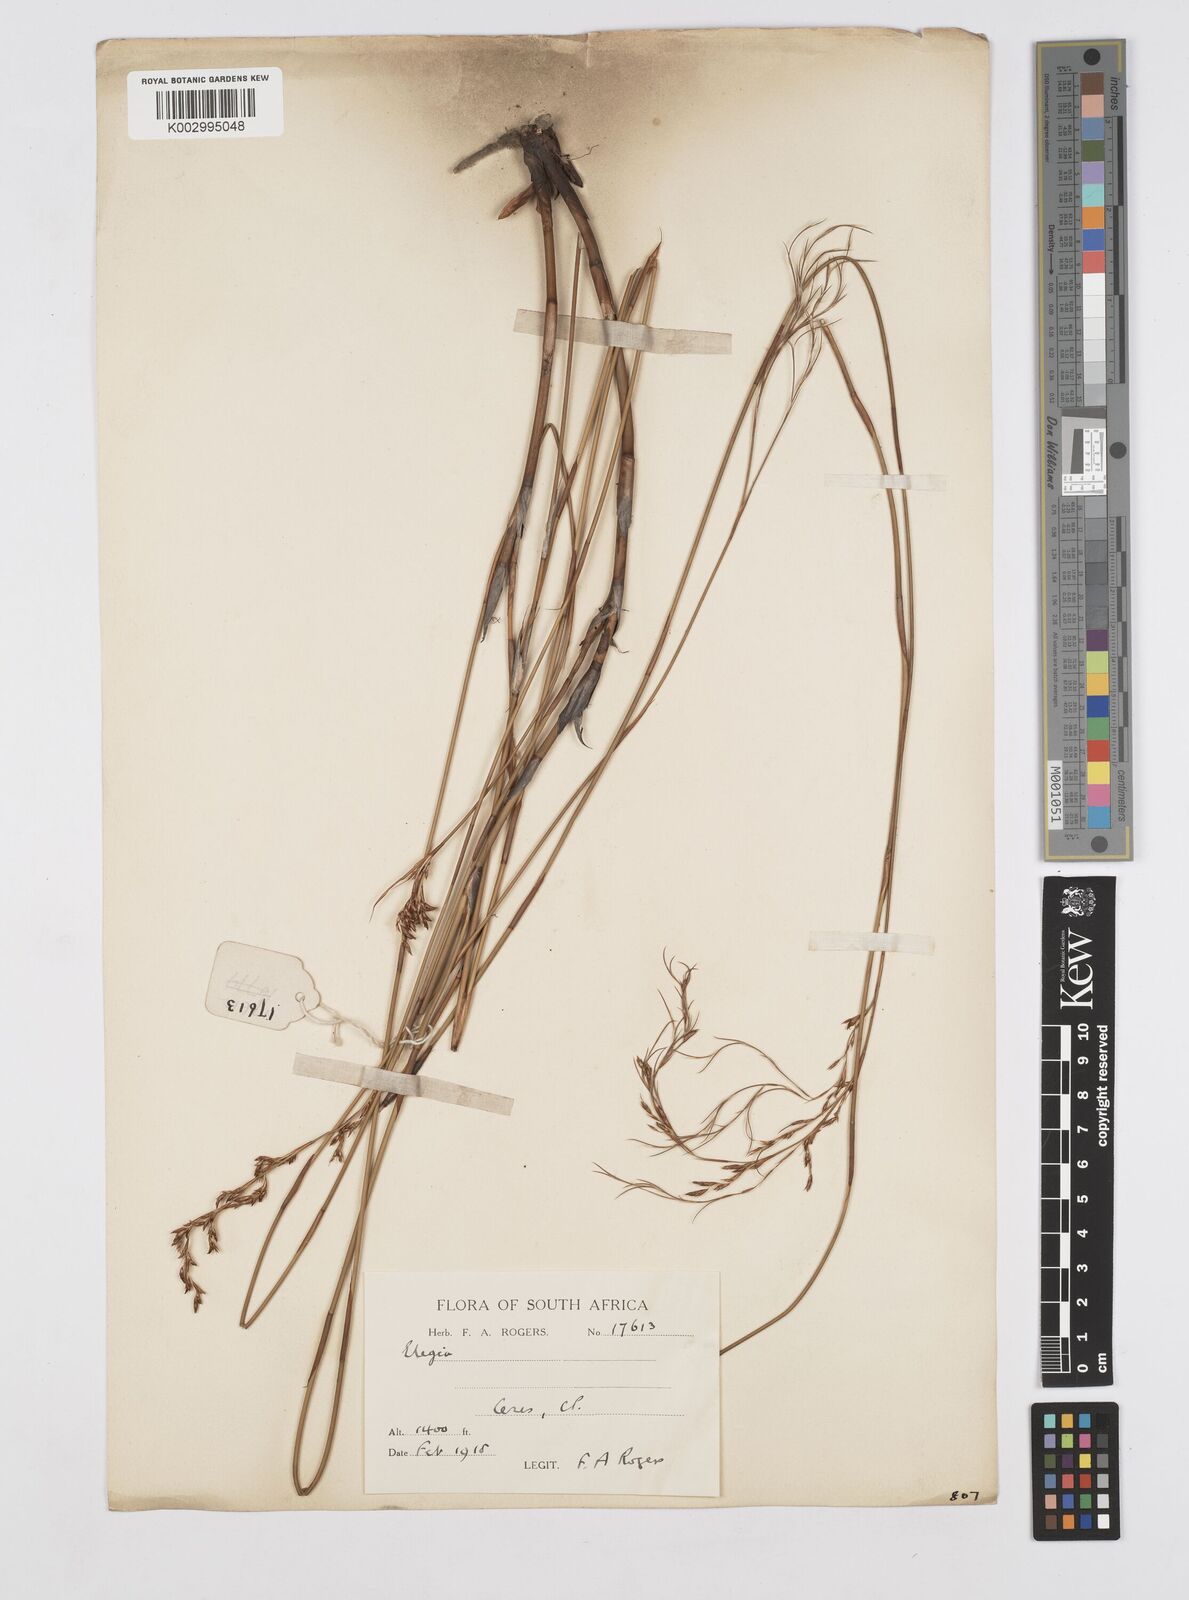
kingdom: Plantae
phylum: Tracheophyta
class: Liliopsida
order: Poales
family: Restionaceae
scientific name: Restionaceae
